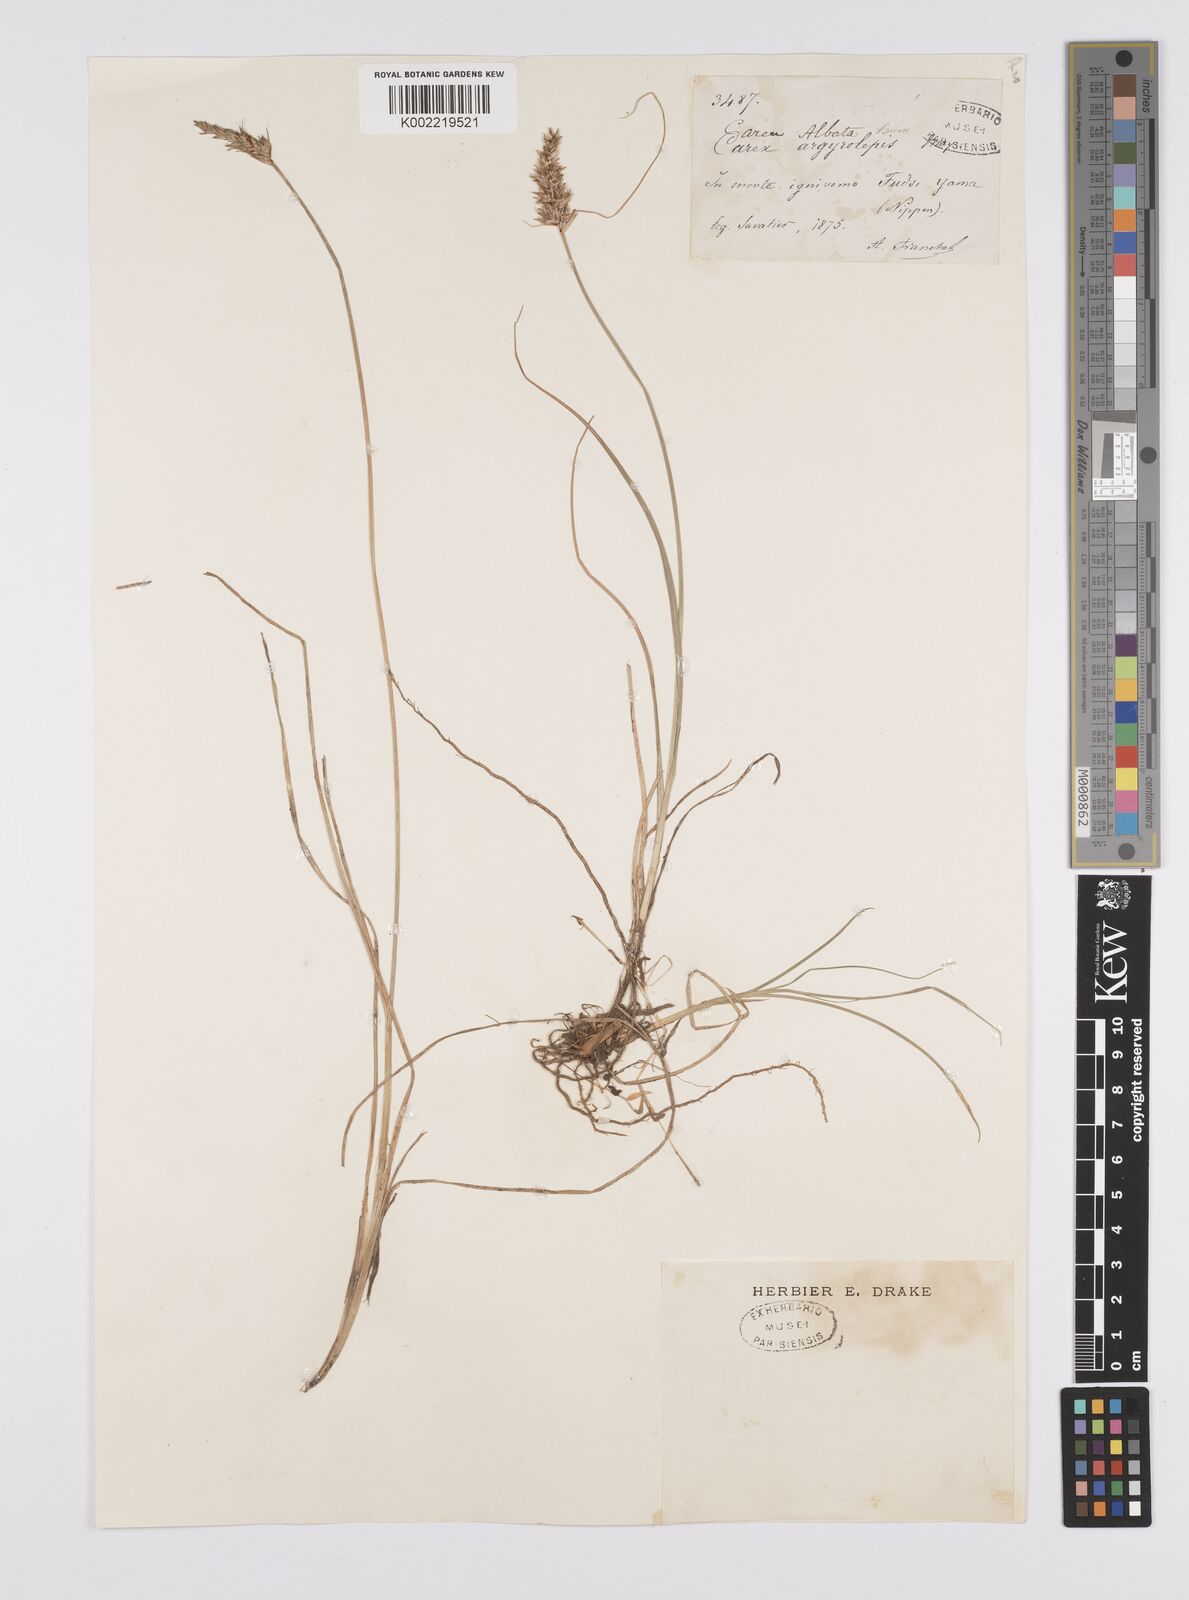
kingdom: Plantae
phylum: Tracheophyta
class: Liliopsida
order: Poales
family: Cyperaceae
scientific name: Cyperaceae
